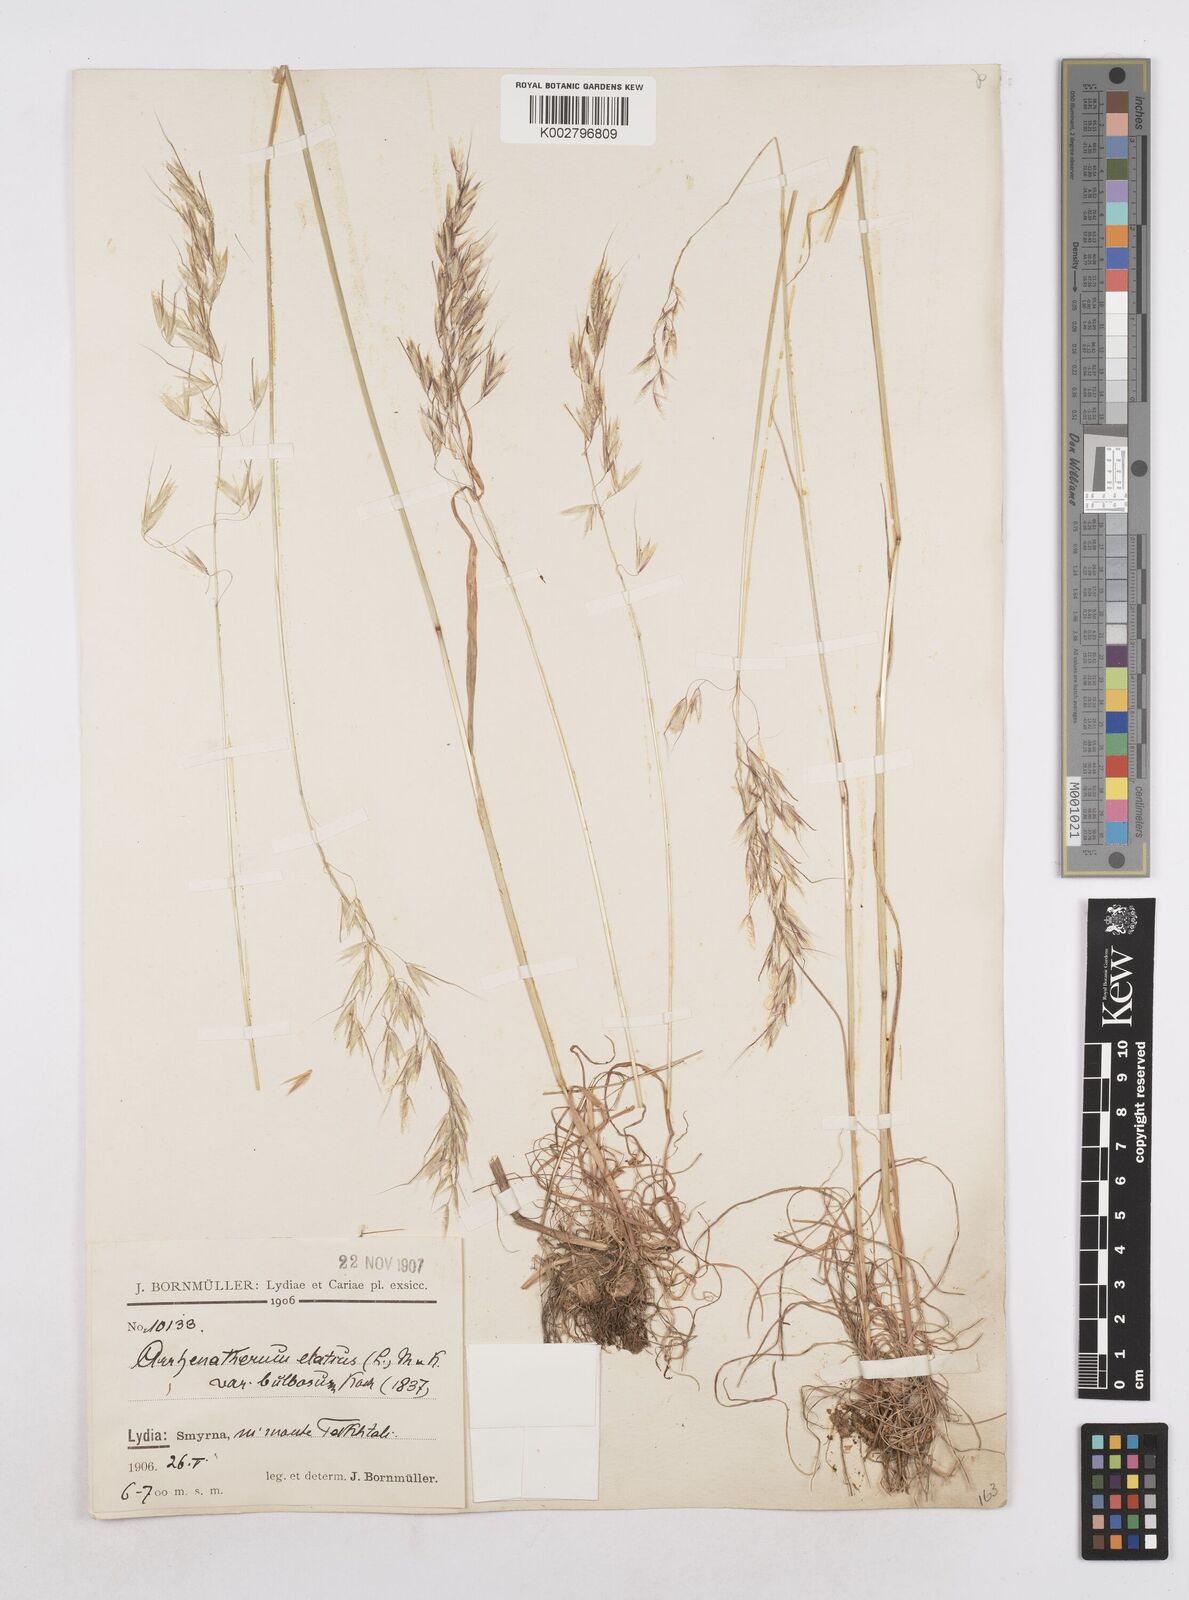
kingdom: Plantae
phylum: Tracheophyta
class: Liliopsida
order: Poales
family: Poaceae
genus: Arrhenatherum
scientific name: Arrhenatherum palaestinum
